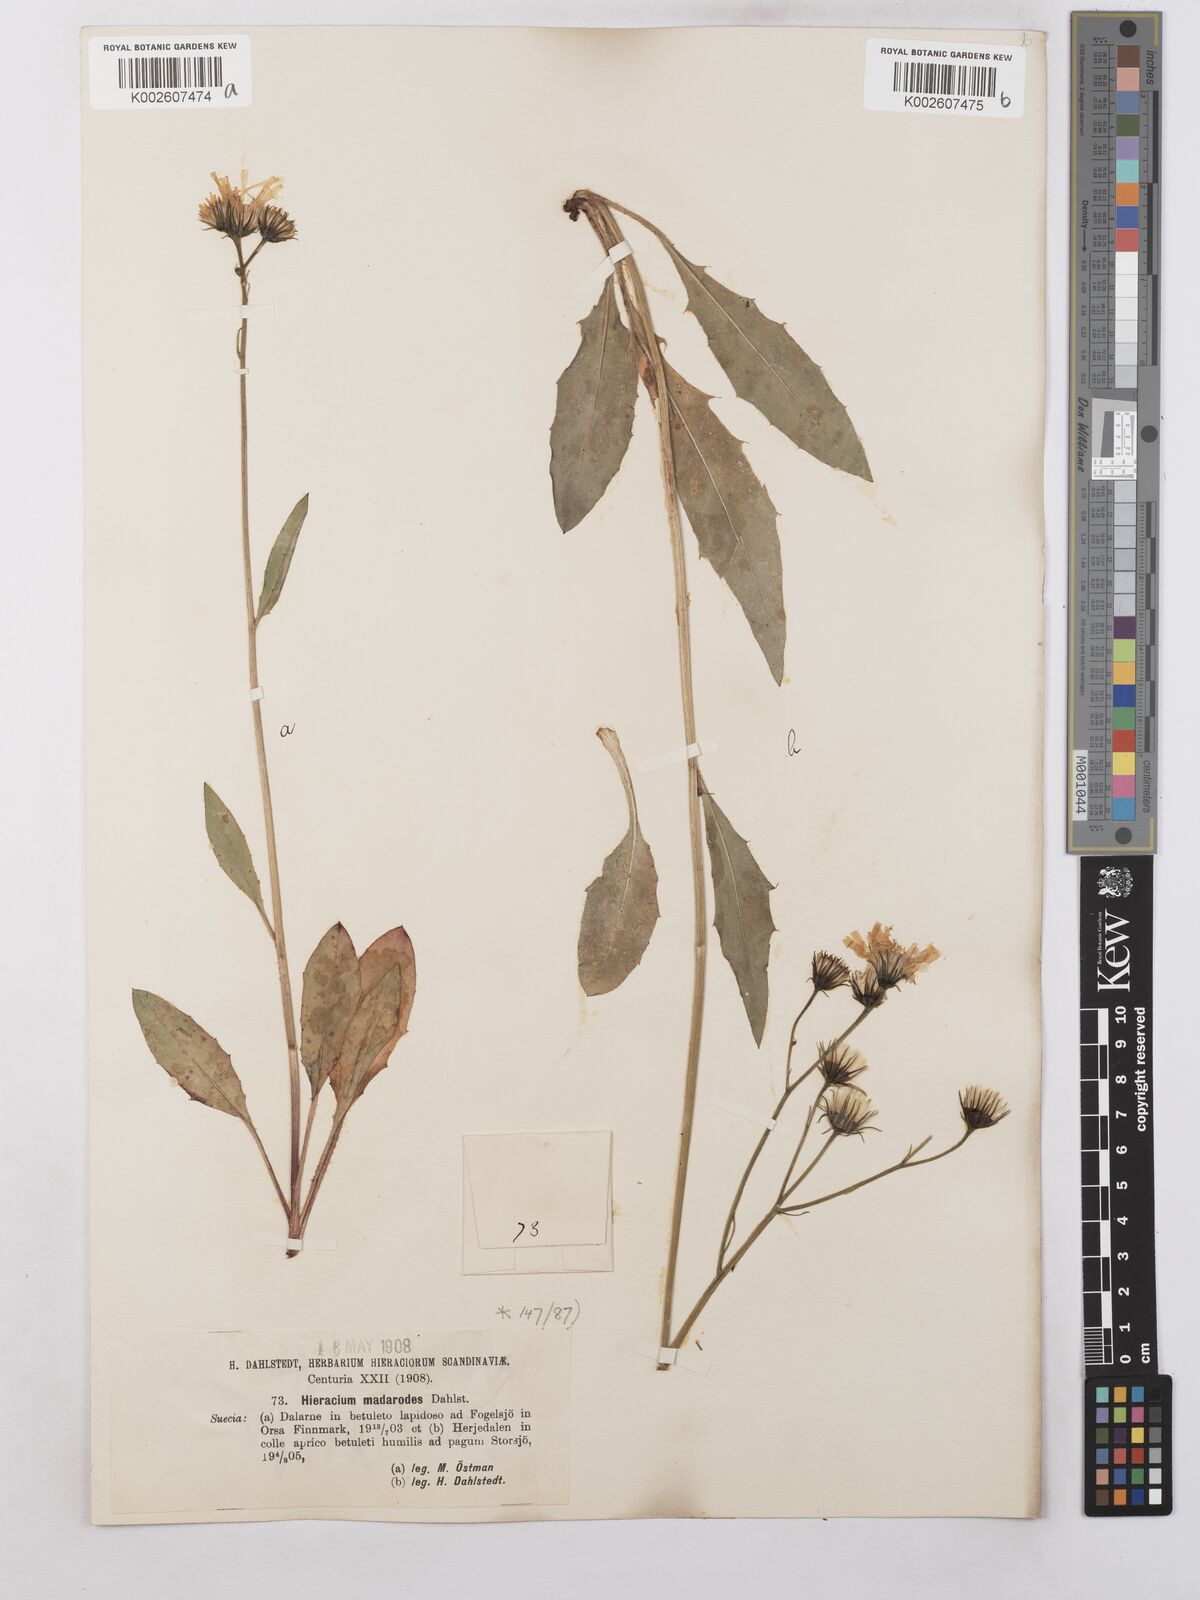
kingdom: Plantae
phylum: Tracheophyta
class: Magnoliopsida
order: Asterales
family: Asteraceae
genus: Hieracium
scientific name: Hieracium caesium
